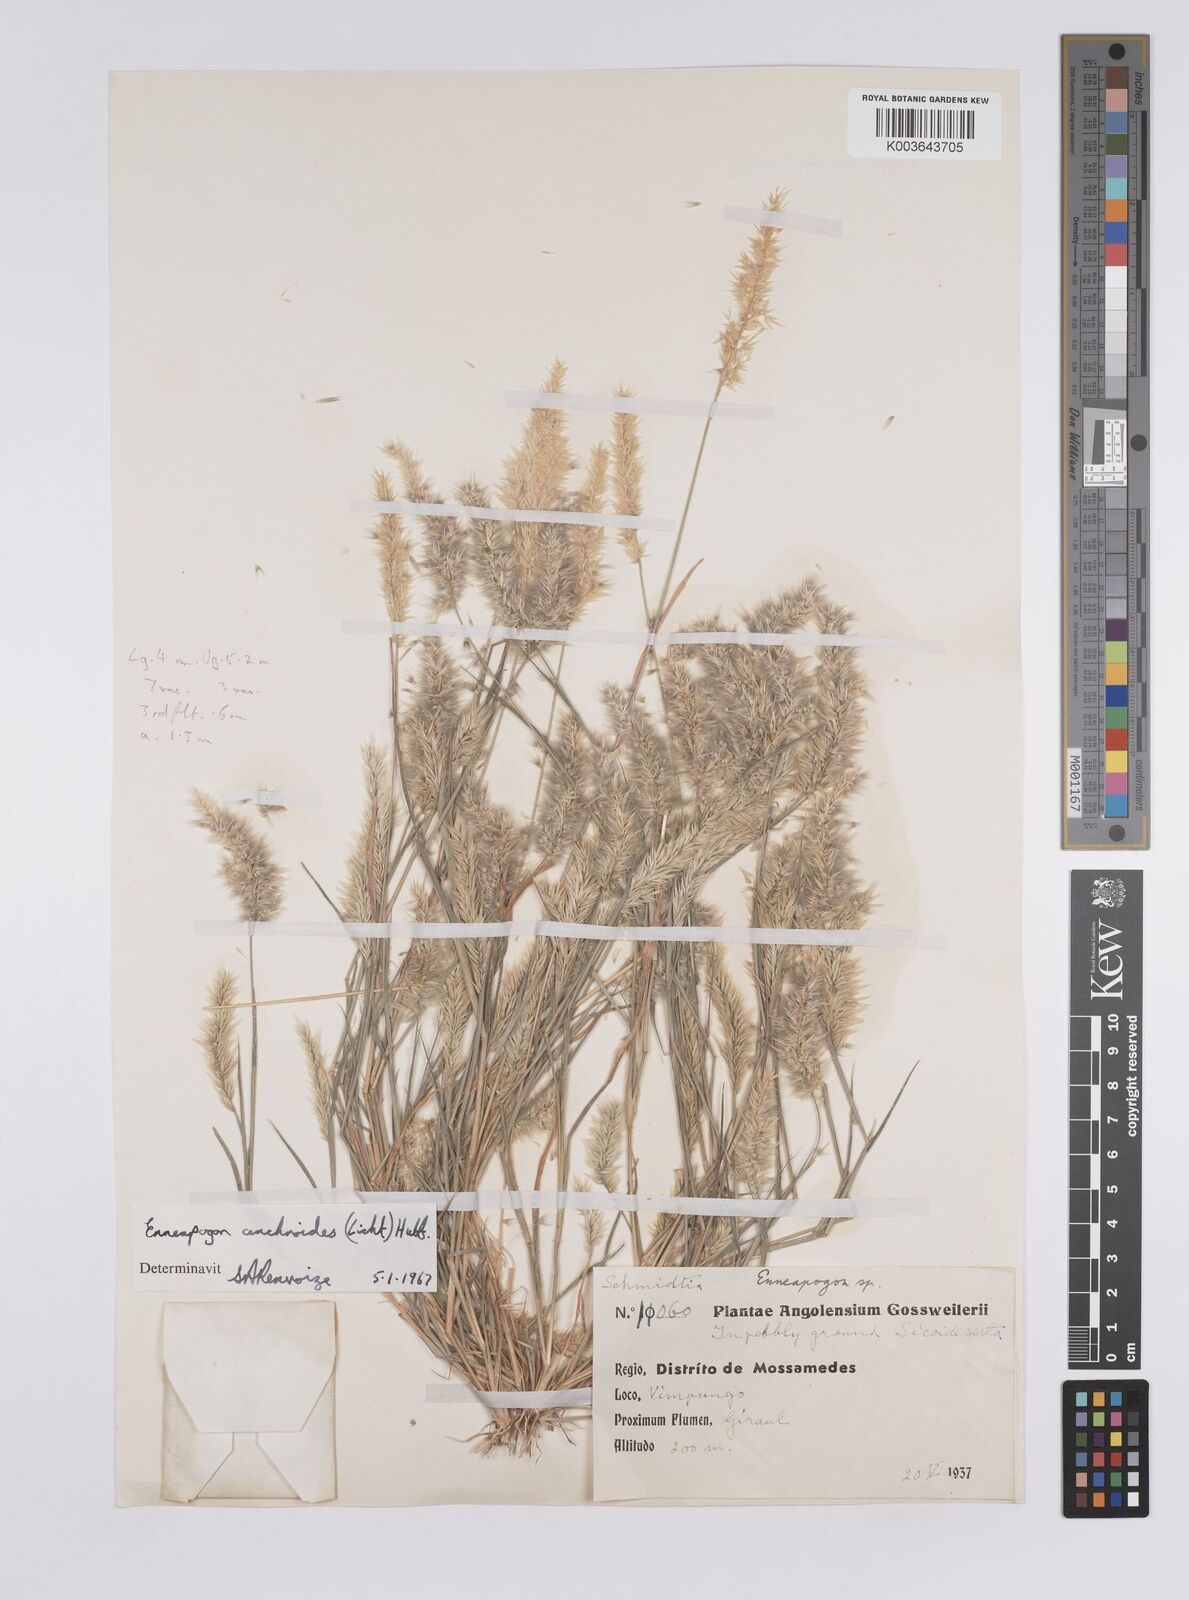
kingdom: Plantae
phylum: Tracheophyta
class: Liliopsida
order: Poales
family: Poaceae
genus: Enneapogon
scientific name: Enneapogon cenchroides
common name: Soft feather pappusgrass
